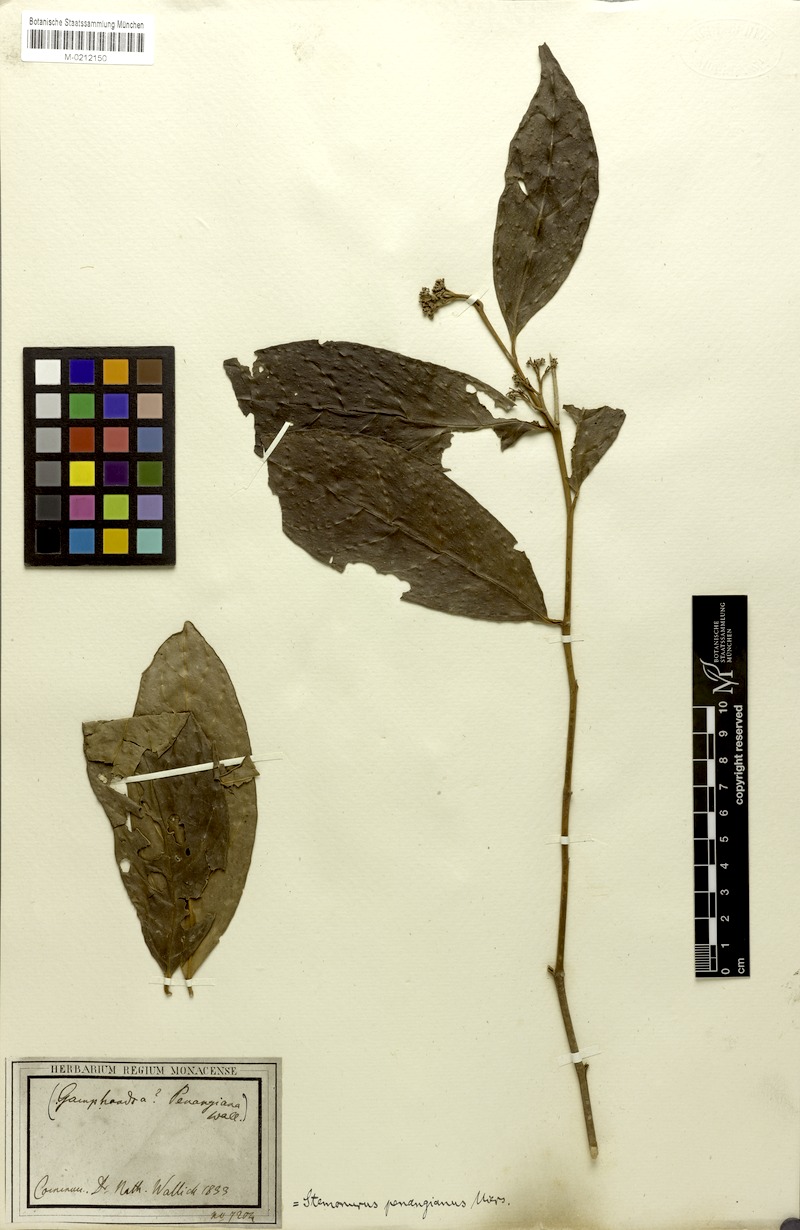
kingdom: Plantae
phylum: Tracheophyta
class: Magnoliopsida
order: Cardiopteridales
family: Stemonuraceae
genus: Gomphandra
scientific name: Gomphandra quadrifida
